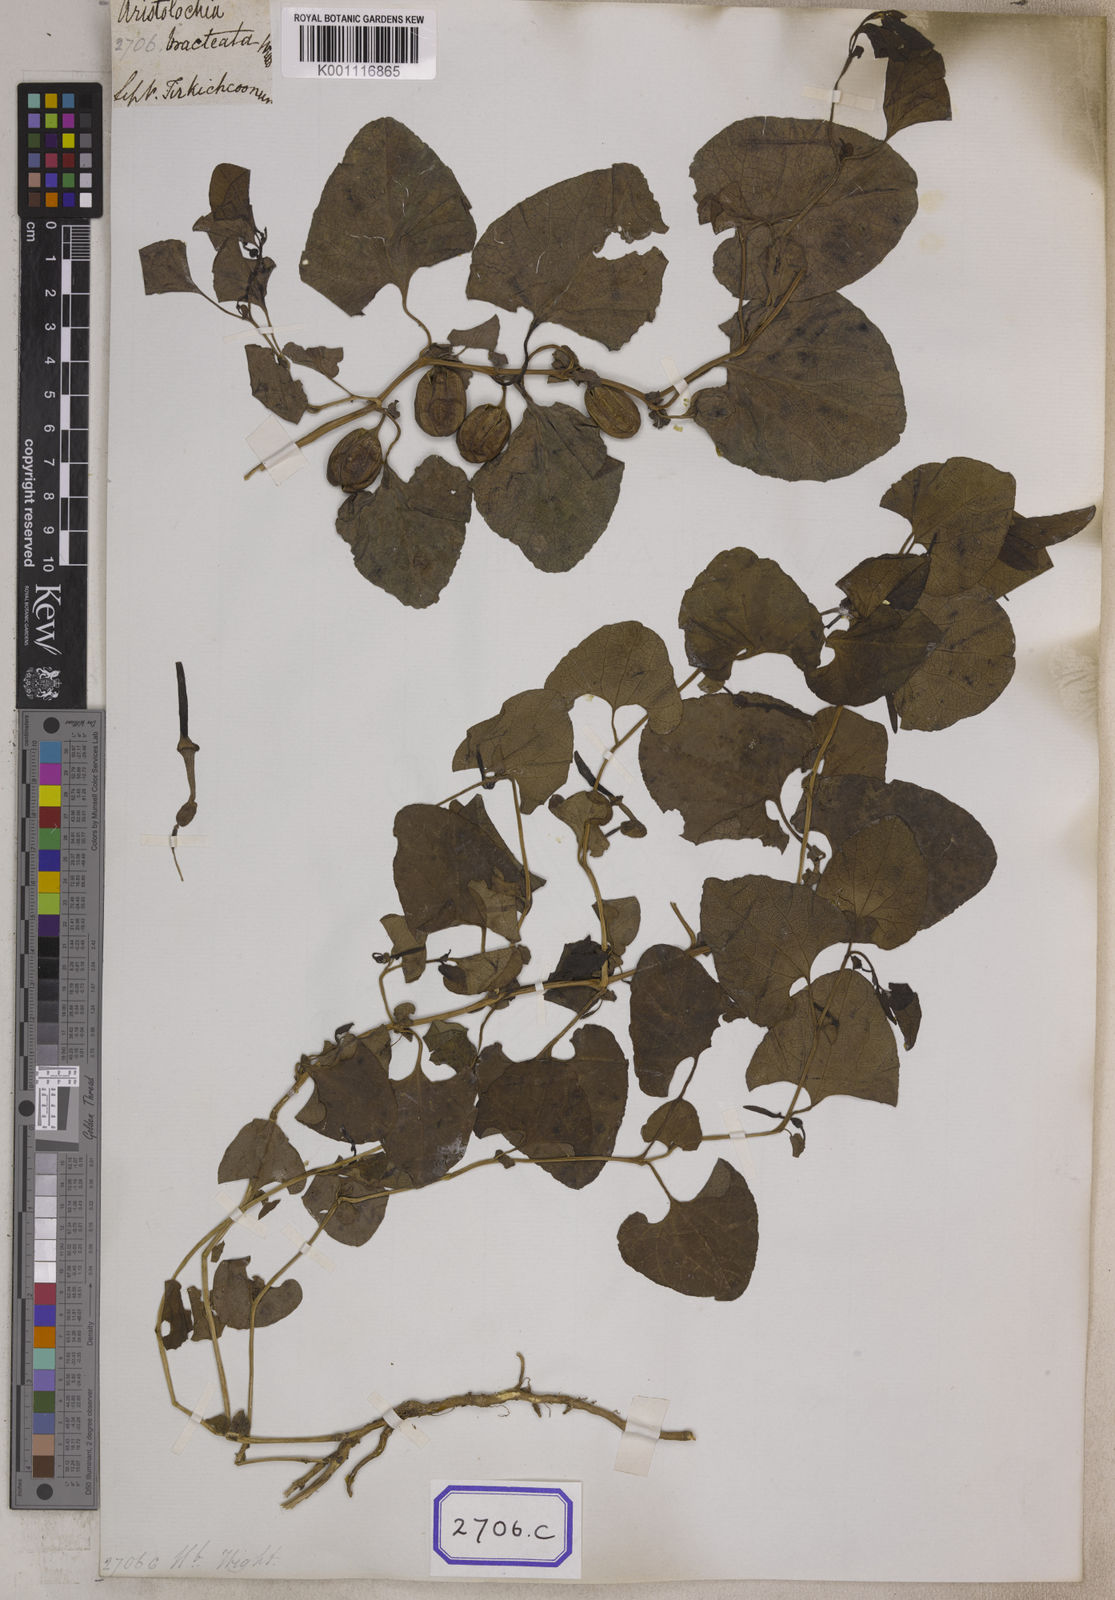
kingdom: Plantae
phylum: Tracheophyta
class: Magnoliopsida
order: Piperales
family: Aristolochiaceae
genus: Aristolochia
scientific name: Aristolochia bracteolata
